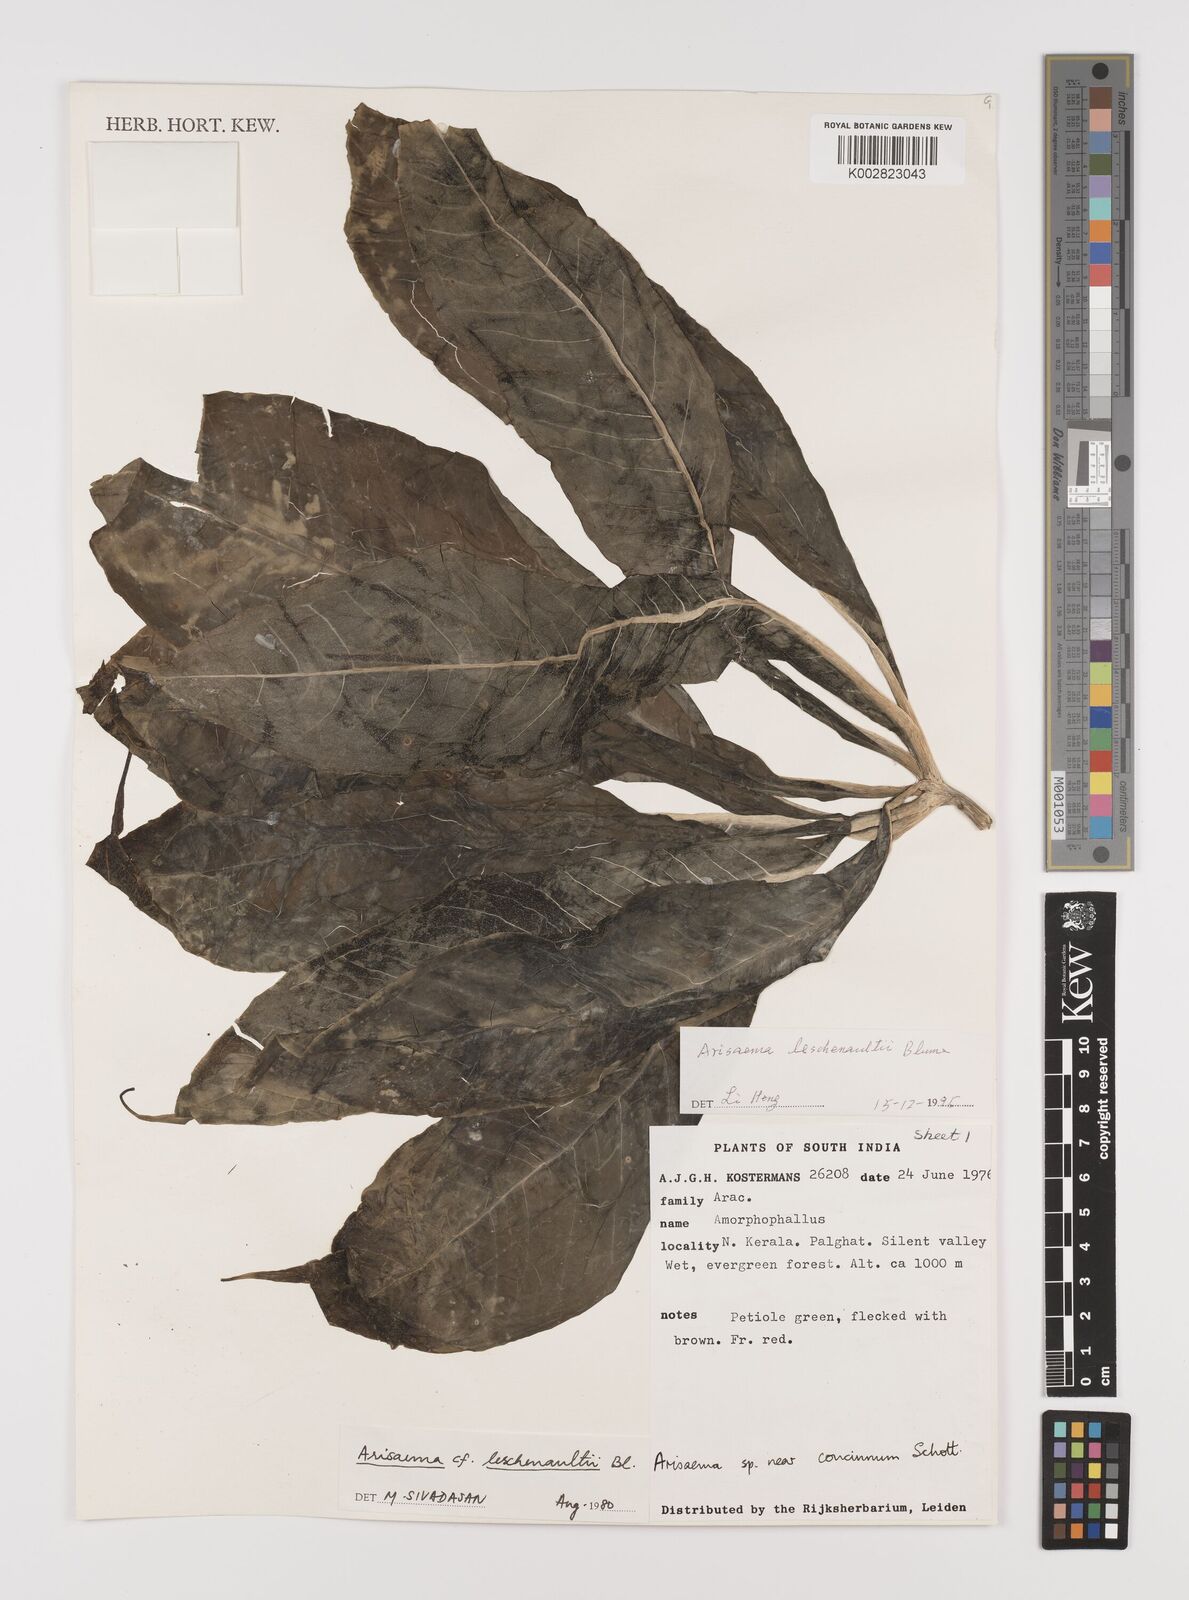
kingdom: Plantae
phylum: Tracheophyta
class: Liliopsida
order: Alismatales
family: Araceae
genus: Arisaema
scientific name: Arisaema leschenaultii
